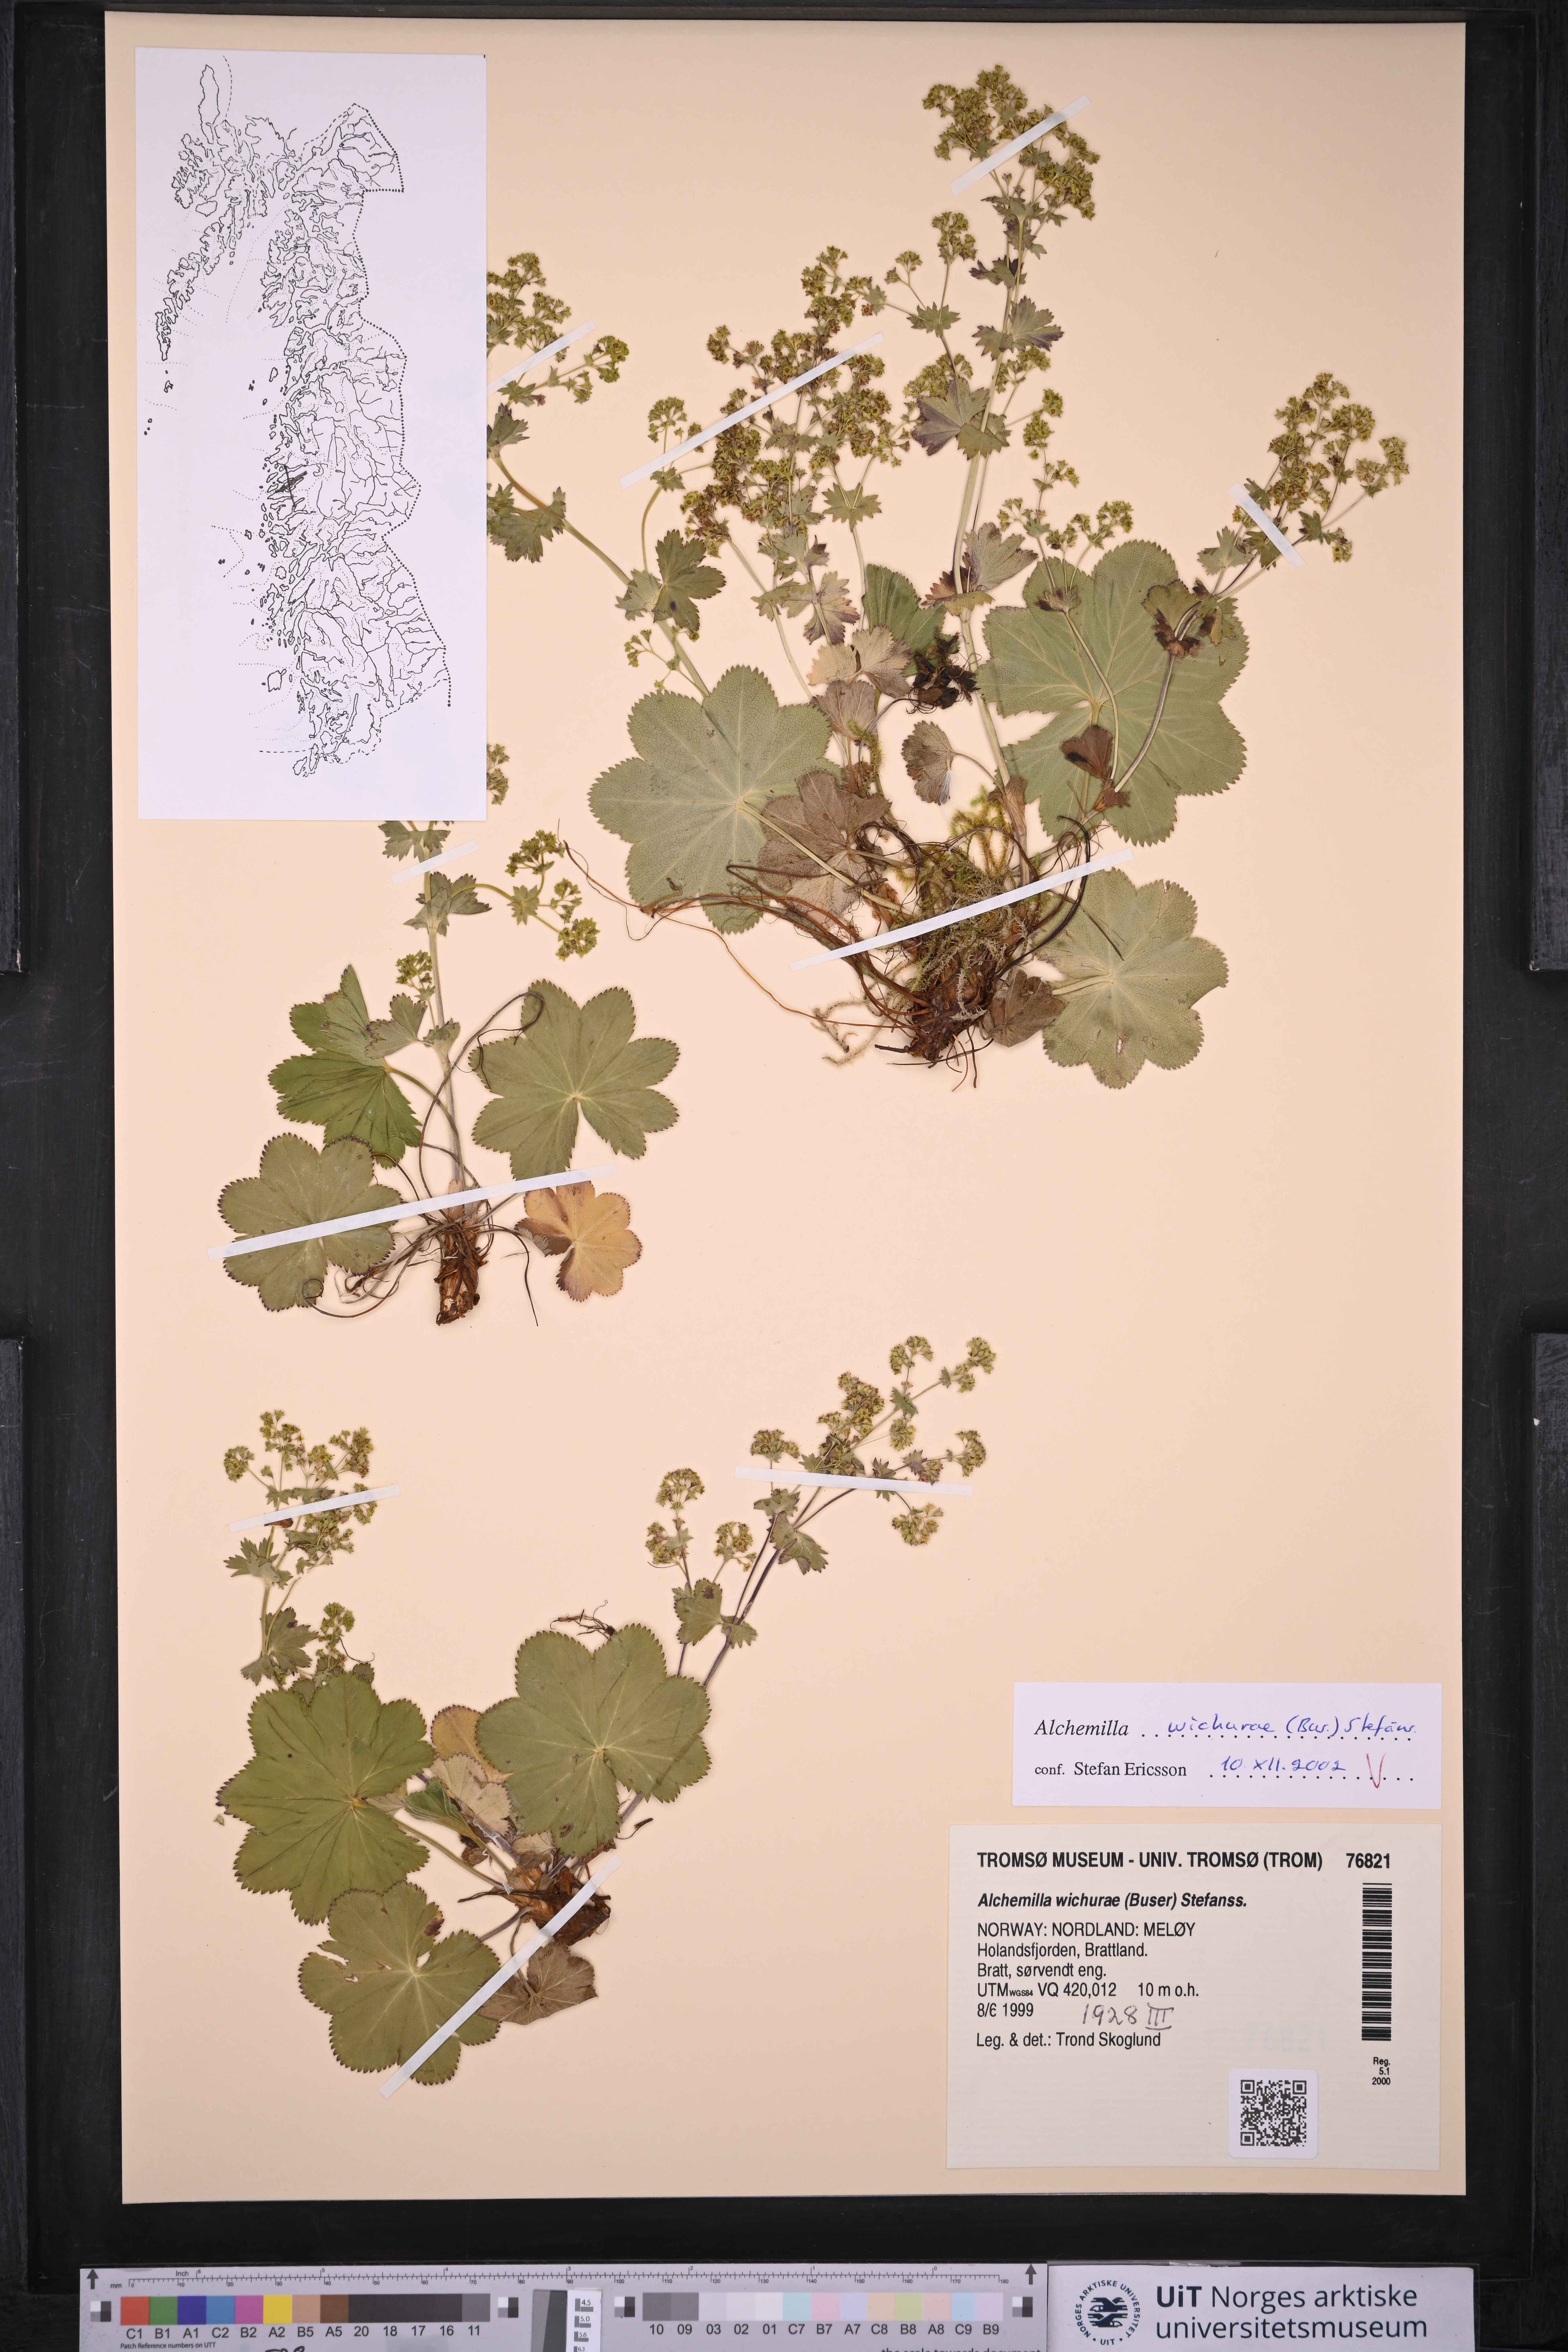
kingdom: Plantae
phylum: Tracheophyta
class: Magnoliopsida
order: Rosales
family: Rosaceae
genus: Alchemilla
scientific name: Alchemilla wichurae
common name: Rock lady's mantle
